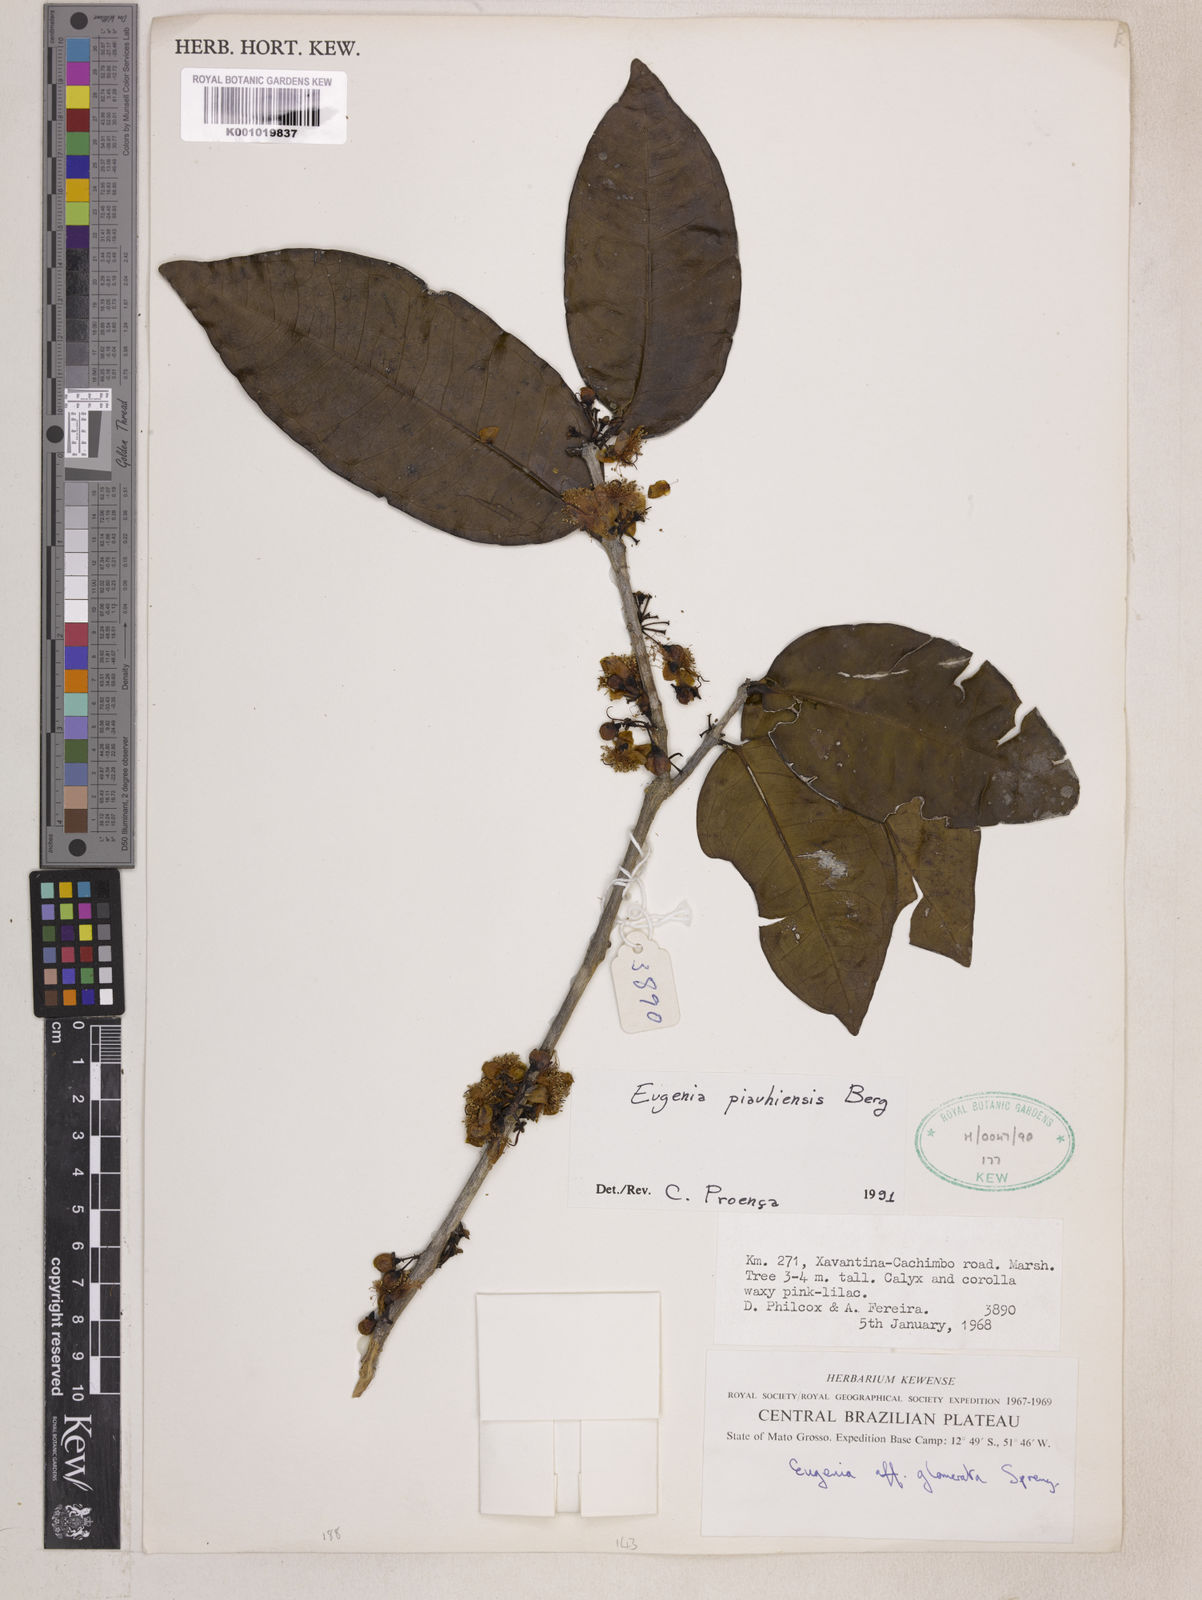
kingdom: Plantae
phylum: Tracheophyta
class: Magnoliopsida
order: Myrtales
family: Myrtaceae
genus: Eugenia
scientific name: Eugenia stictopetala
